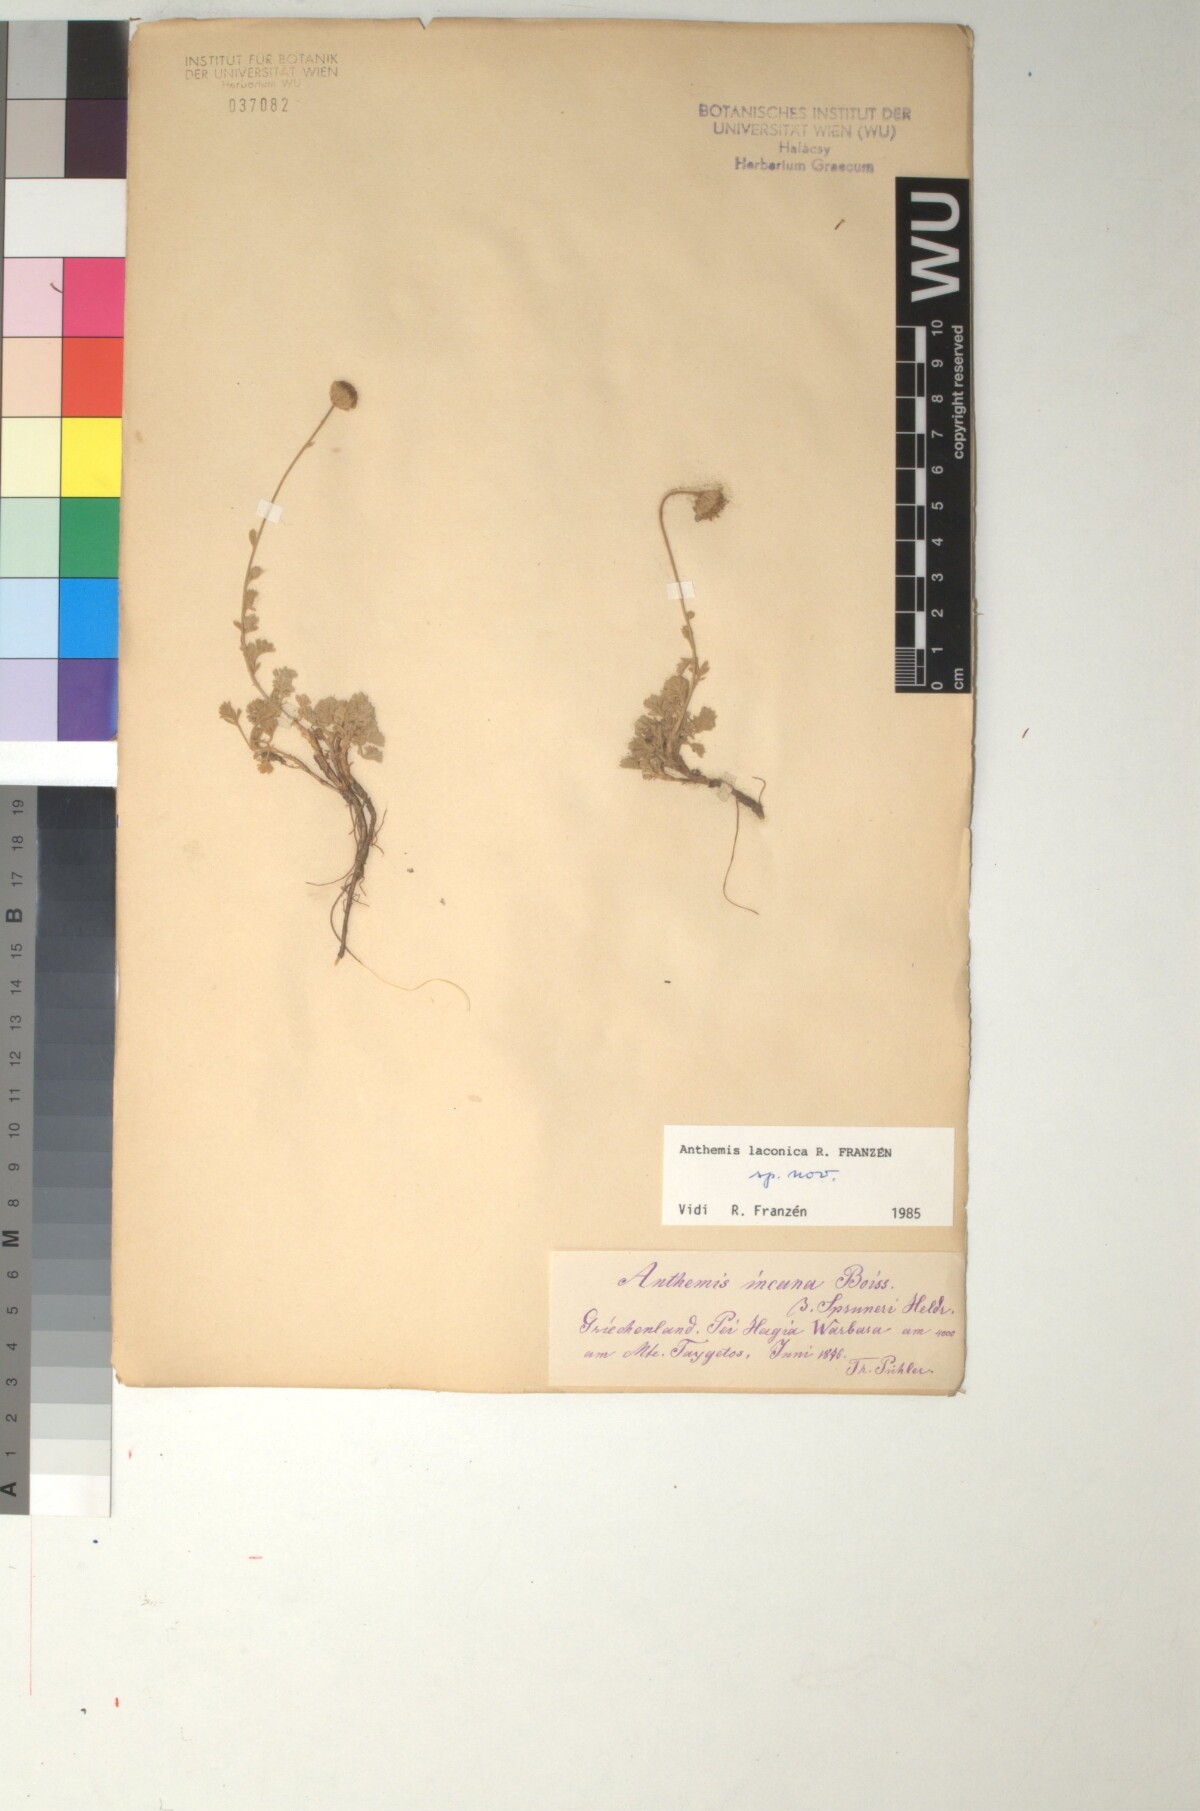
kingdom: Plantae
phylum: Tracheophyta
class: Magnoliopsida
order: Asterales
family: Asteraceae
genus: Anthemis
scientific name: Anthemis laconica
